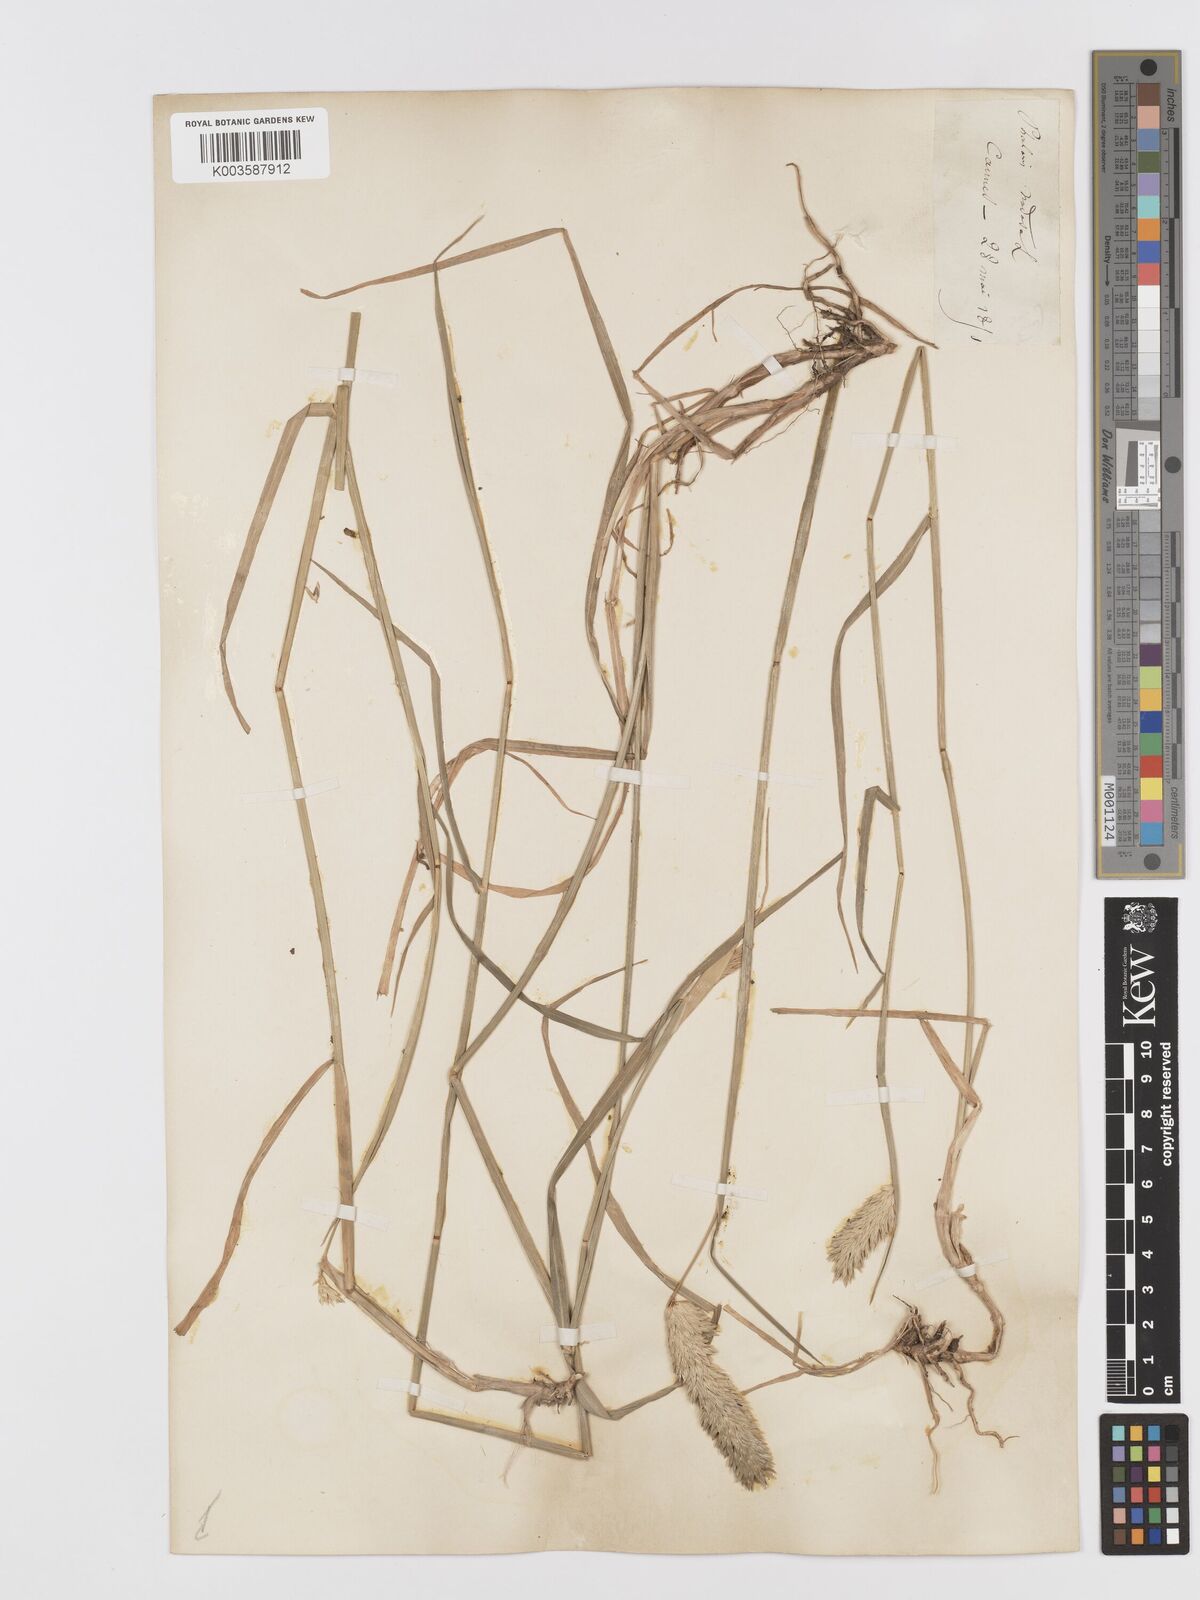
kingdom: Plantae
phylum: Tracheophyta
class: Liliopsida
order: Poales
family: Poaceae
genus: Phalaris
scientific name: Phalaris
